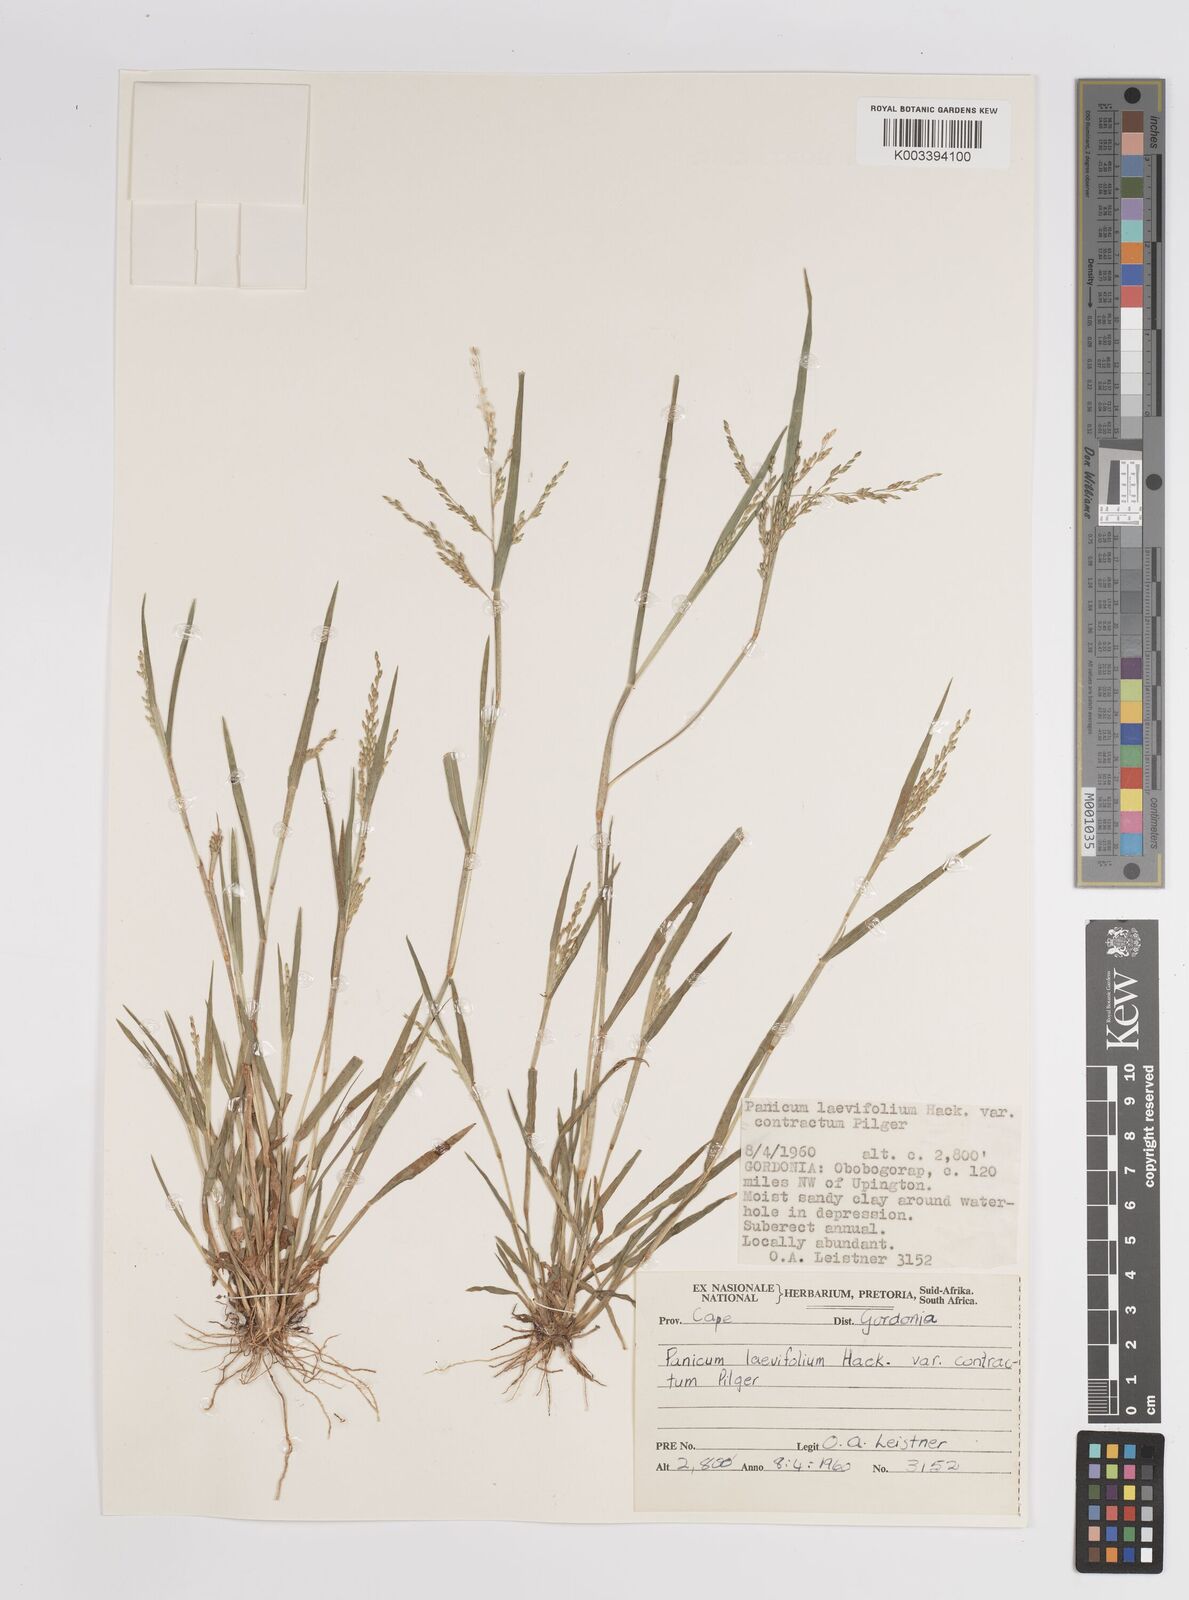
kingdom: Plantae
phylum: Tracheophyta
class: Liliopsida
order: Poales
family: Poaceae
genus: Panicum
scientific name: Panicum impeditum
